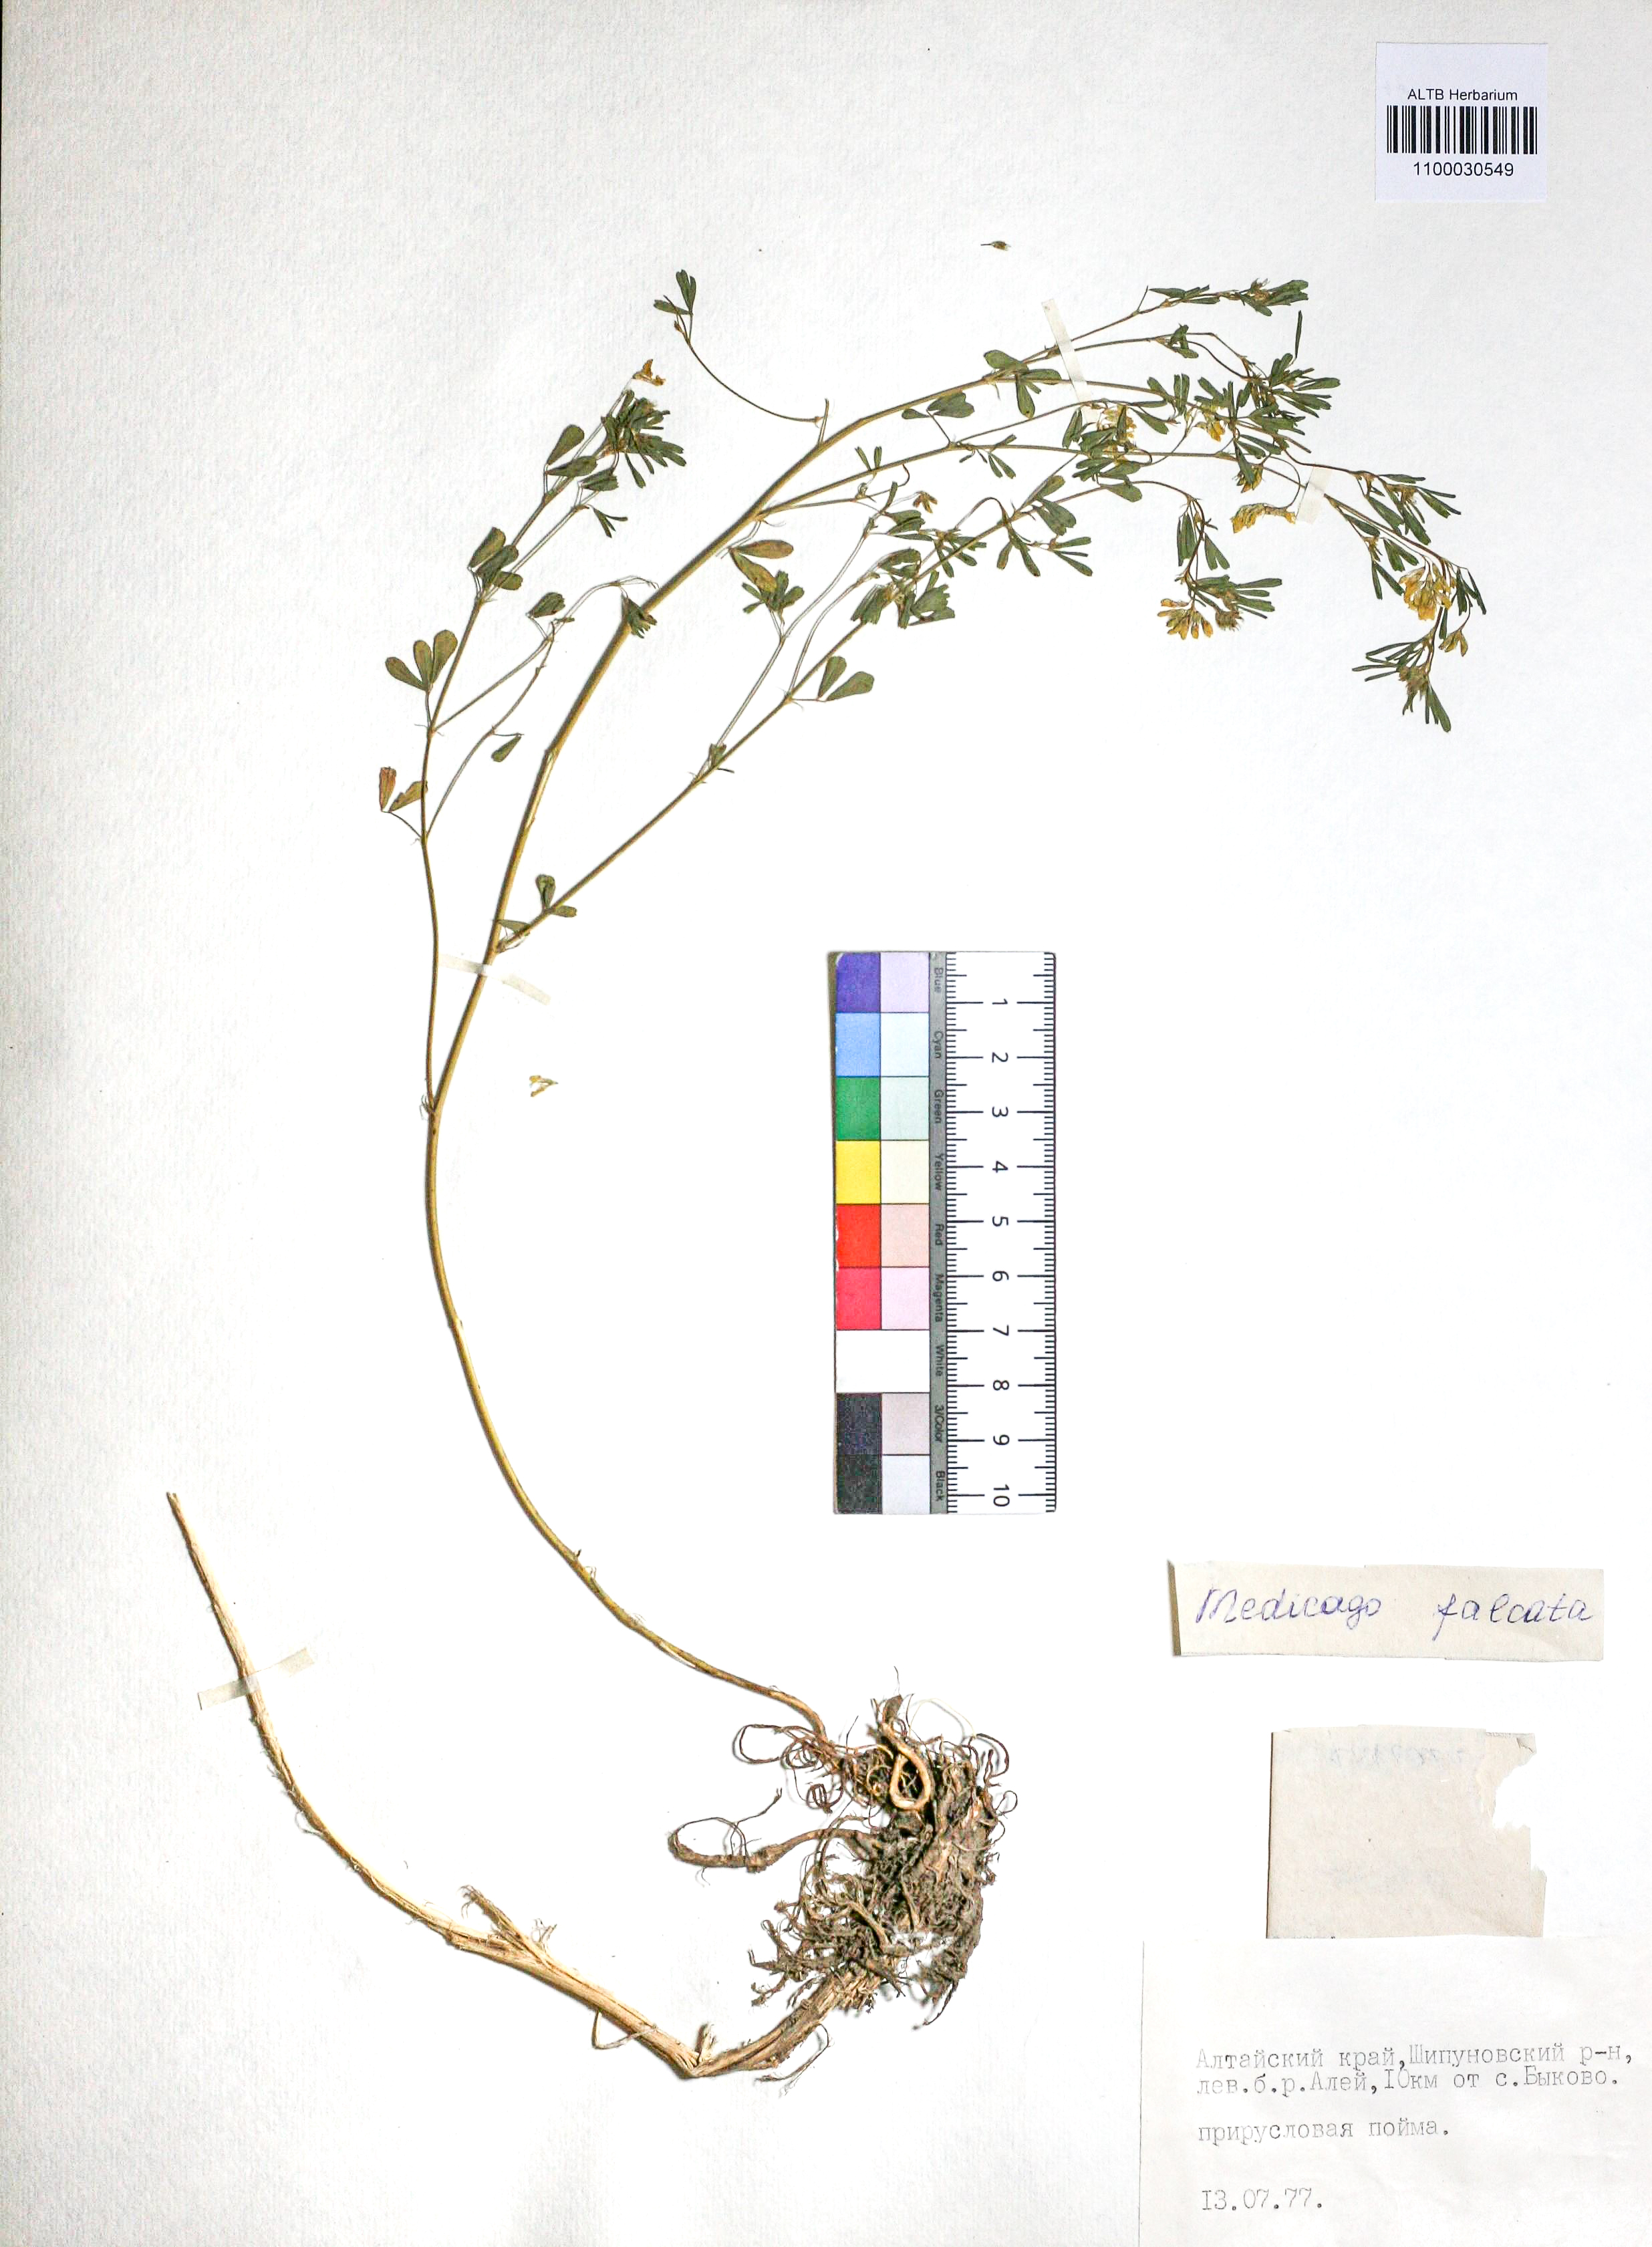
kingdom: Plantae
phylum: Tracheophyta
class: Magnoliopsida
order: Fabales
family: Fabaceae
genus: Medicago
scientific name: Medicago falcata
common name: Sickle medick
